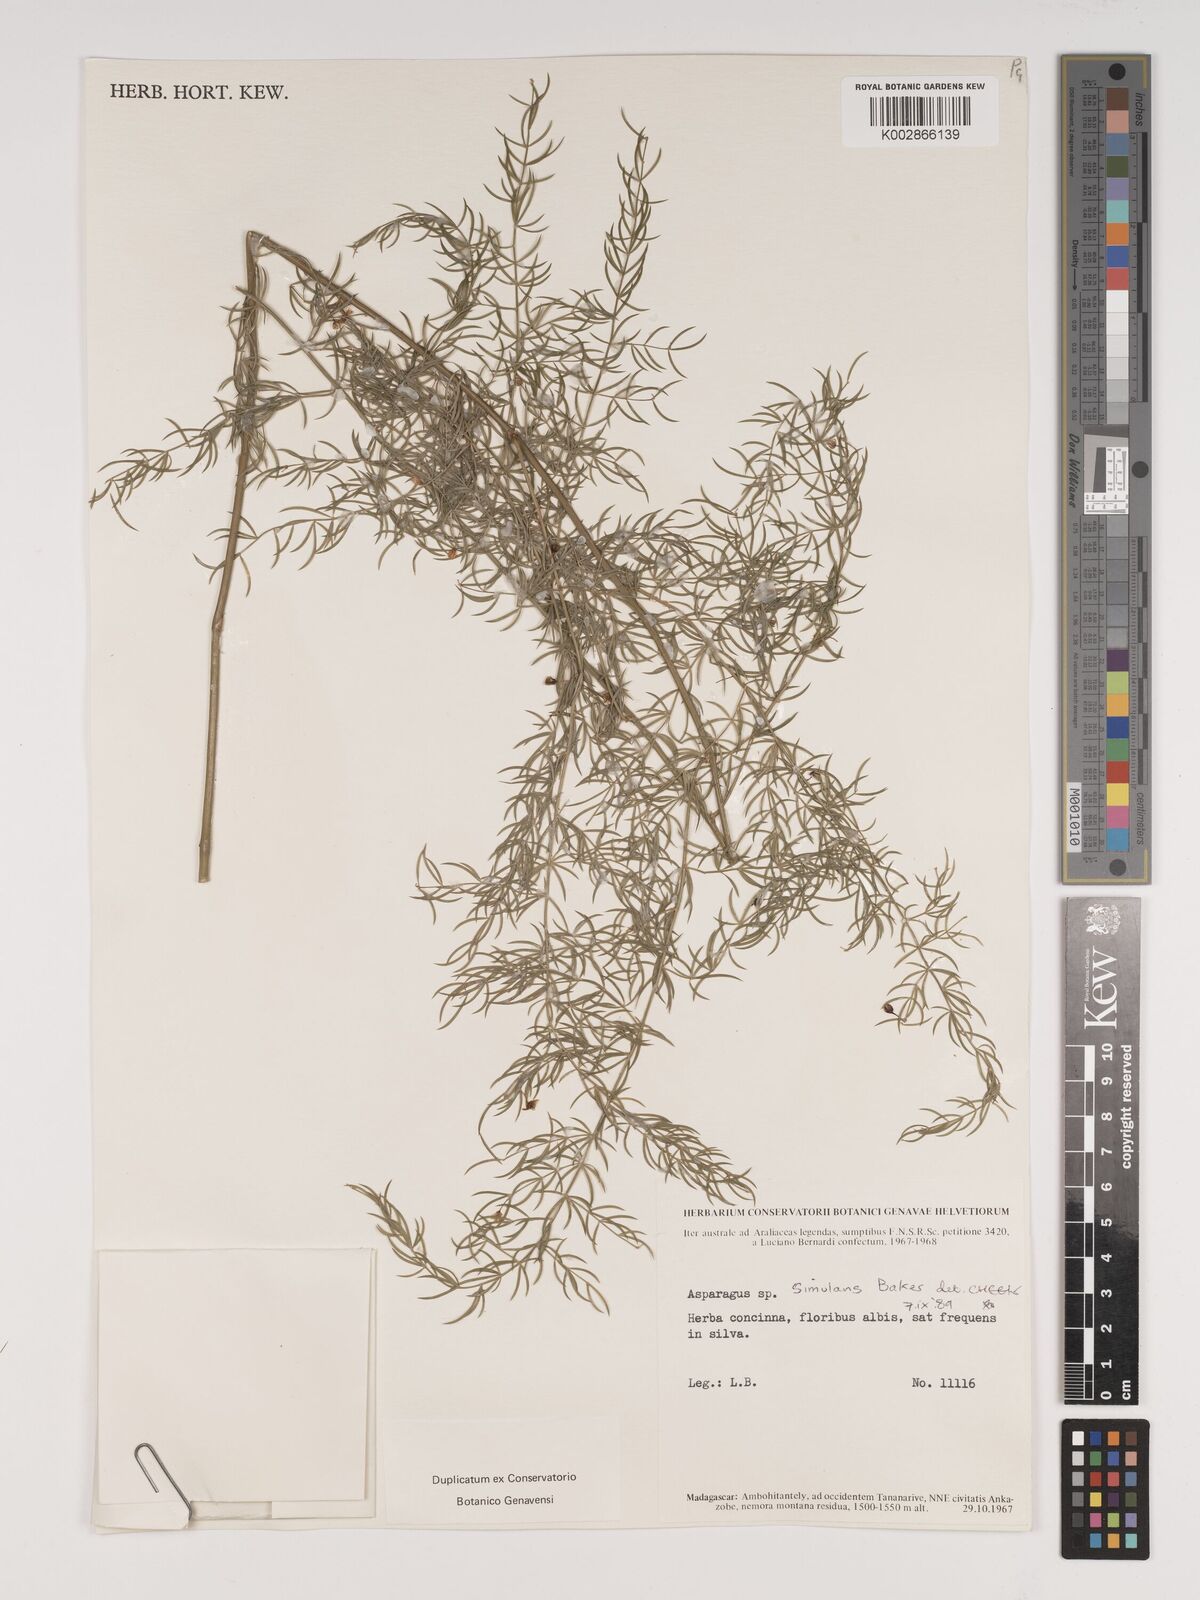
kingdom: Plantae
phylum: Tracheophyta
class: Liliopsida
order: Asparagales
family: Asparagaceae
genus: Asparagus
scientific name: Asparagus simulans
